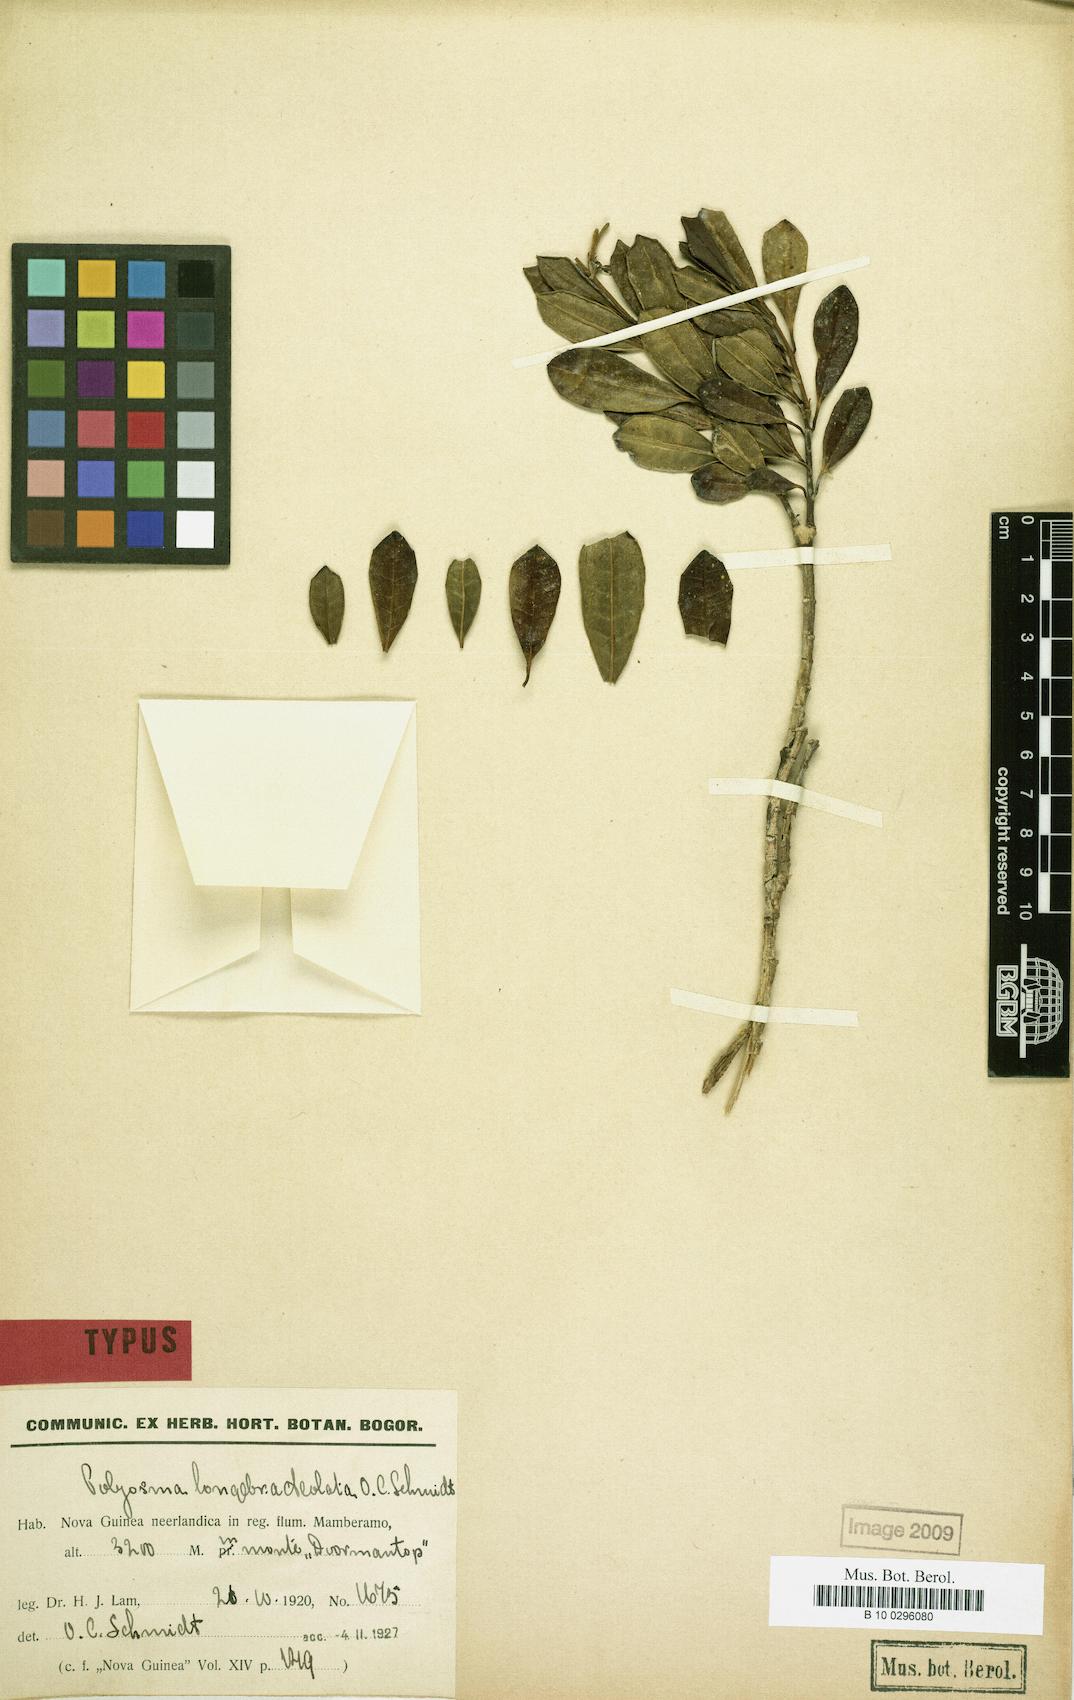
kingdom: Plantae
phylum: Tracheophyta
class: Magnoliopsida
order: Escalloniales
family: Escalloniaceae
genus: Polyosma
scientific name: Polyosma longebracteolata
